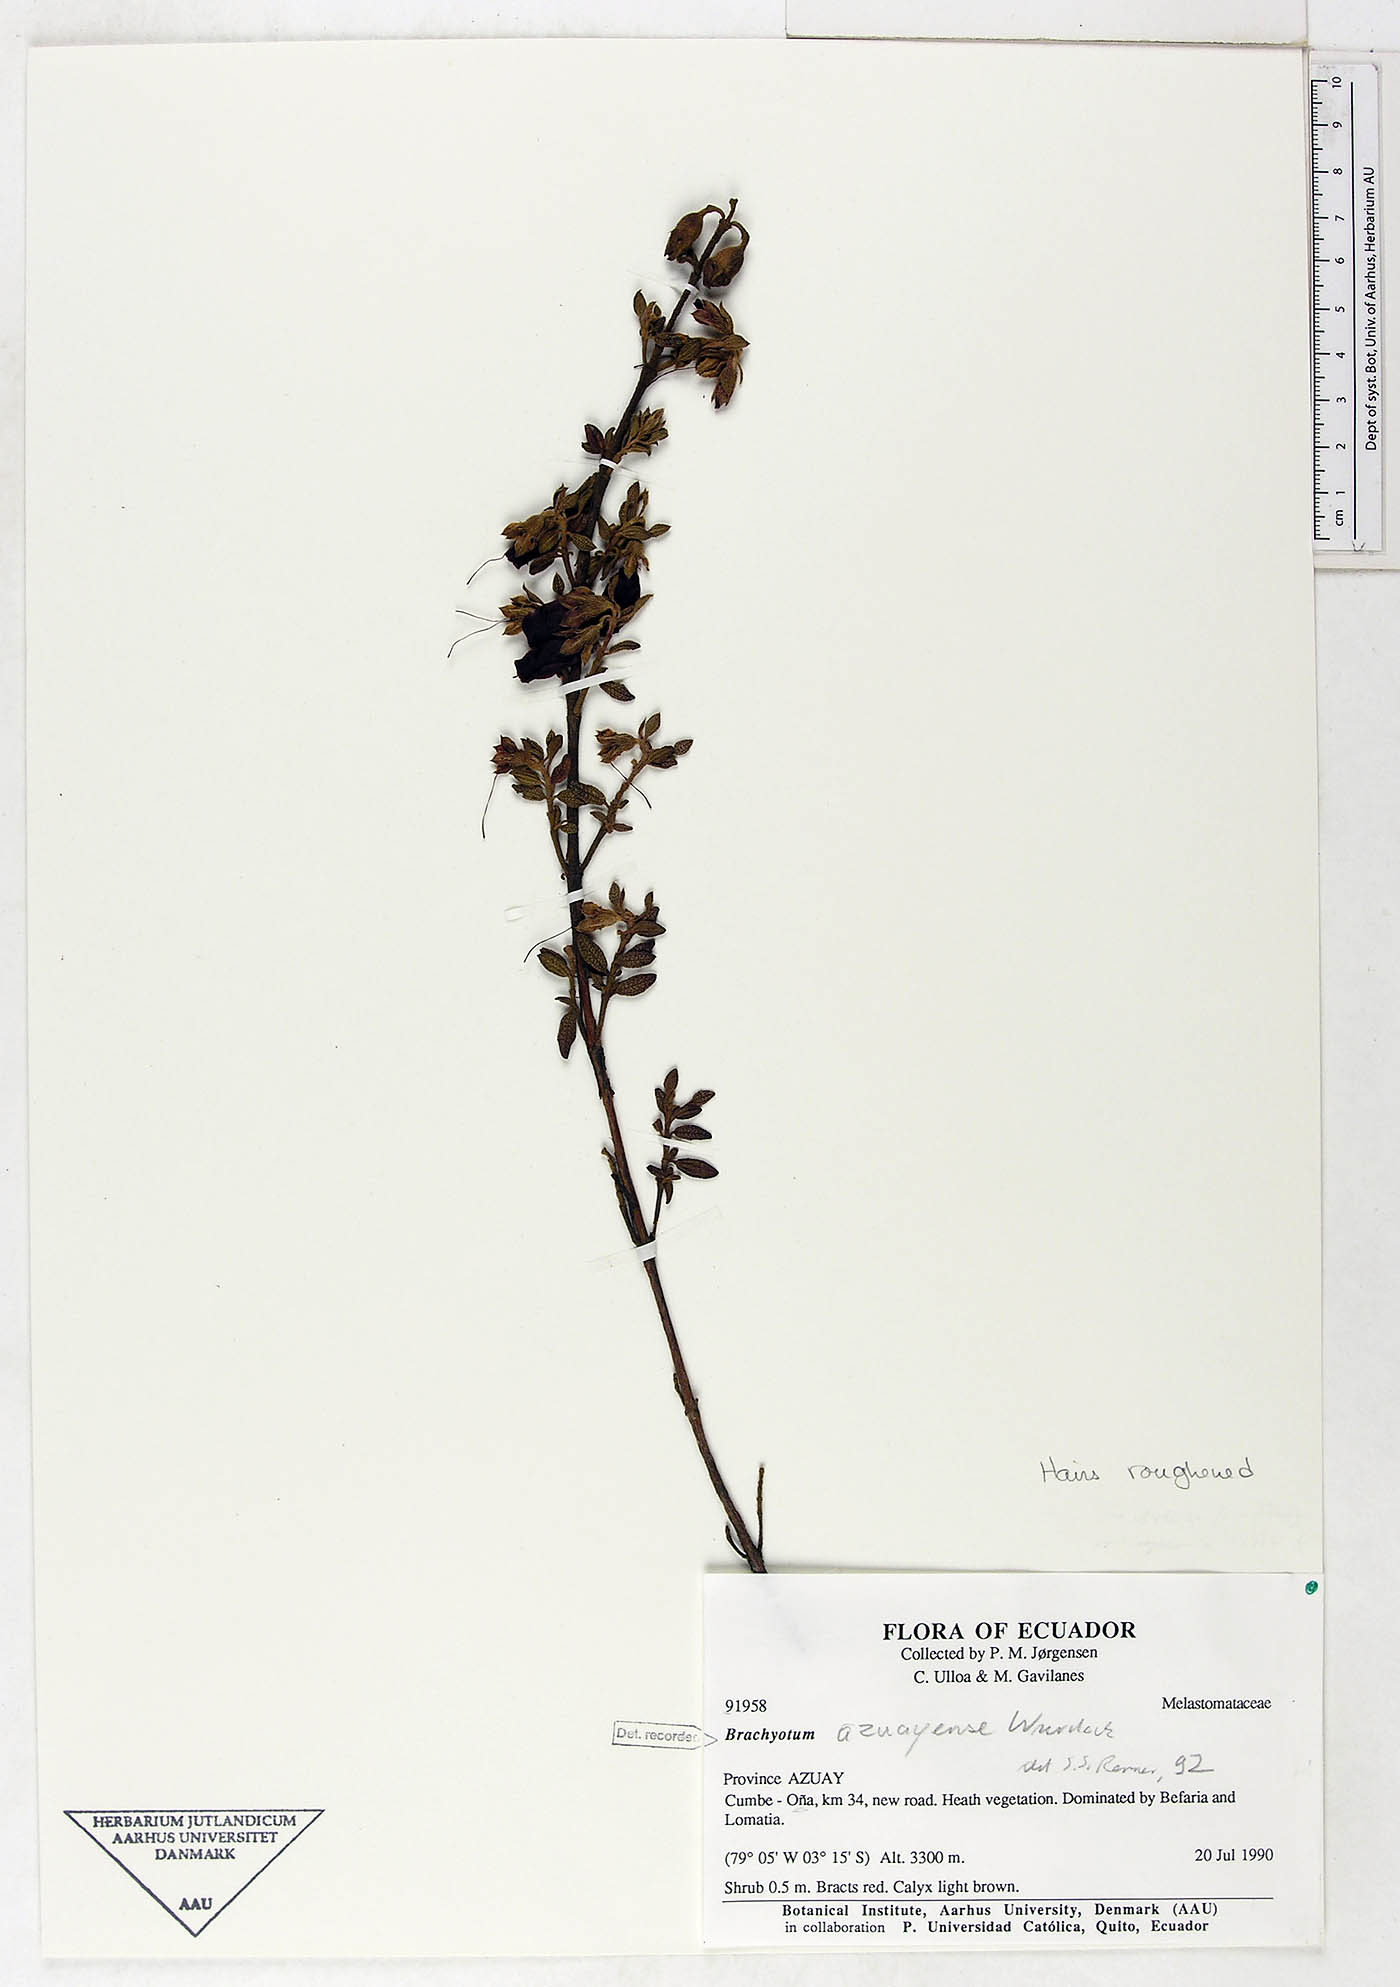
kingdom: Plantae
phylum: Tracheophyta
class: Magnoliopsida
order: Myrtales
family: Melastomataceae
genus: Brachyotum
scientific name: Brachyotum azuayense
